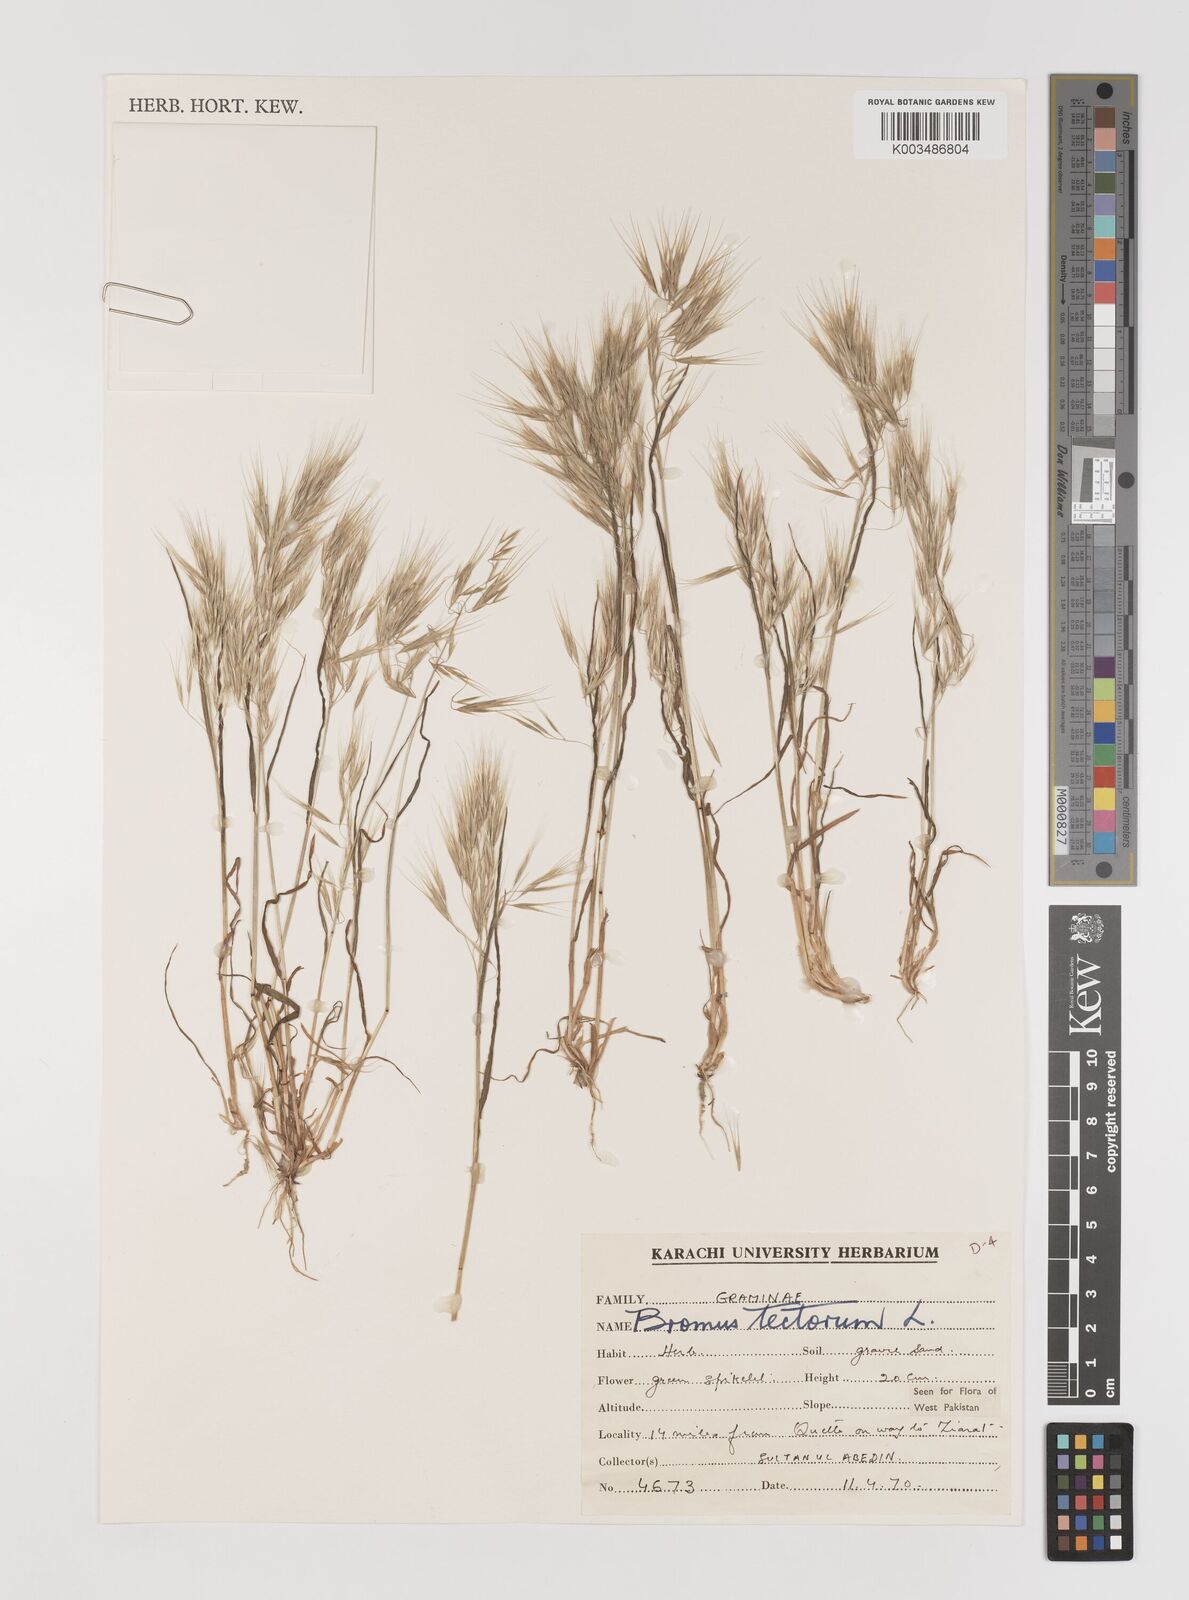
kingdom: Plantae
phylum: Tracheophyta
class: Liliopsida
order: Poales
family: Poaceae
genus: Bromus
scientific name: Bromus tectorum
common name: Cheatgrass
